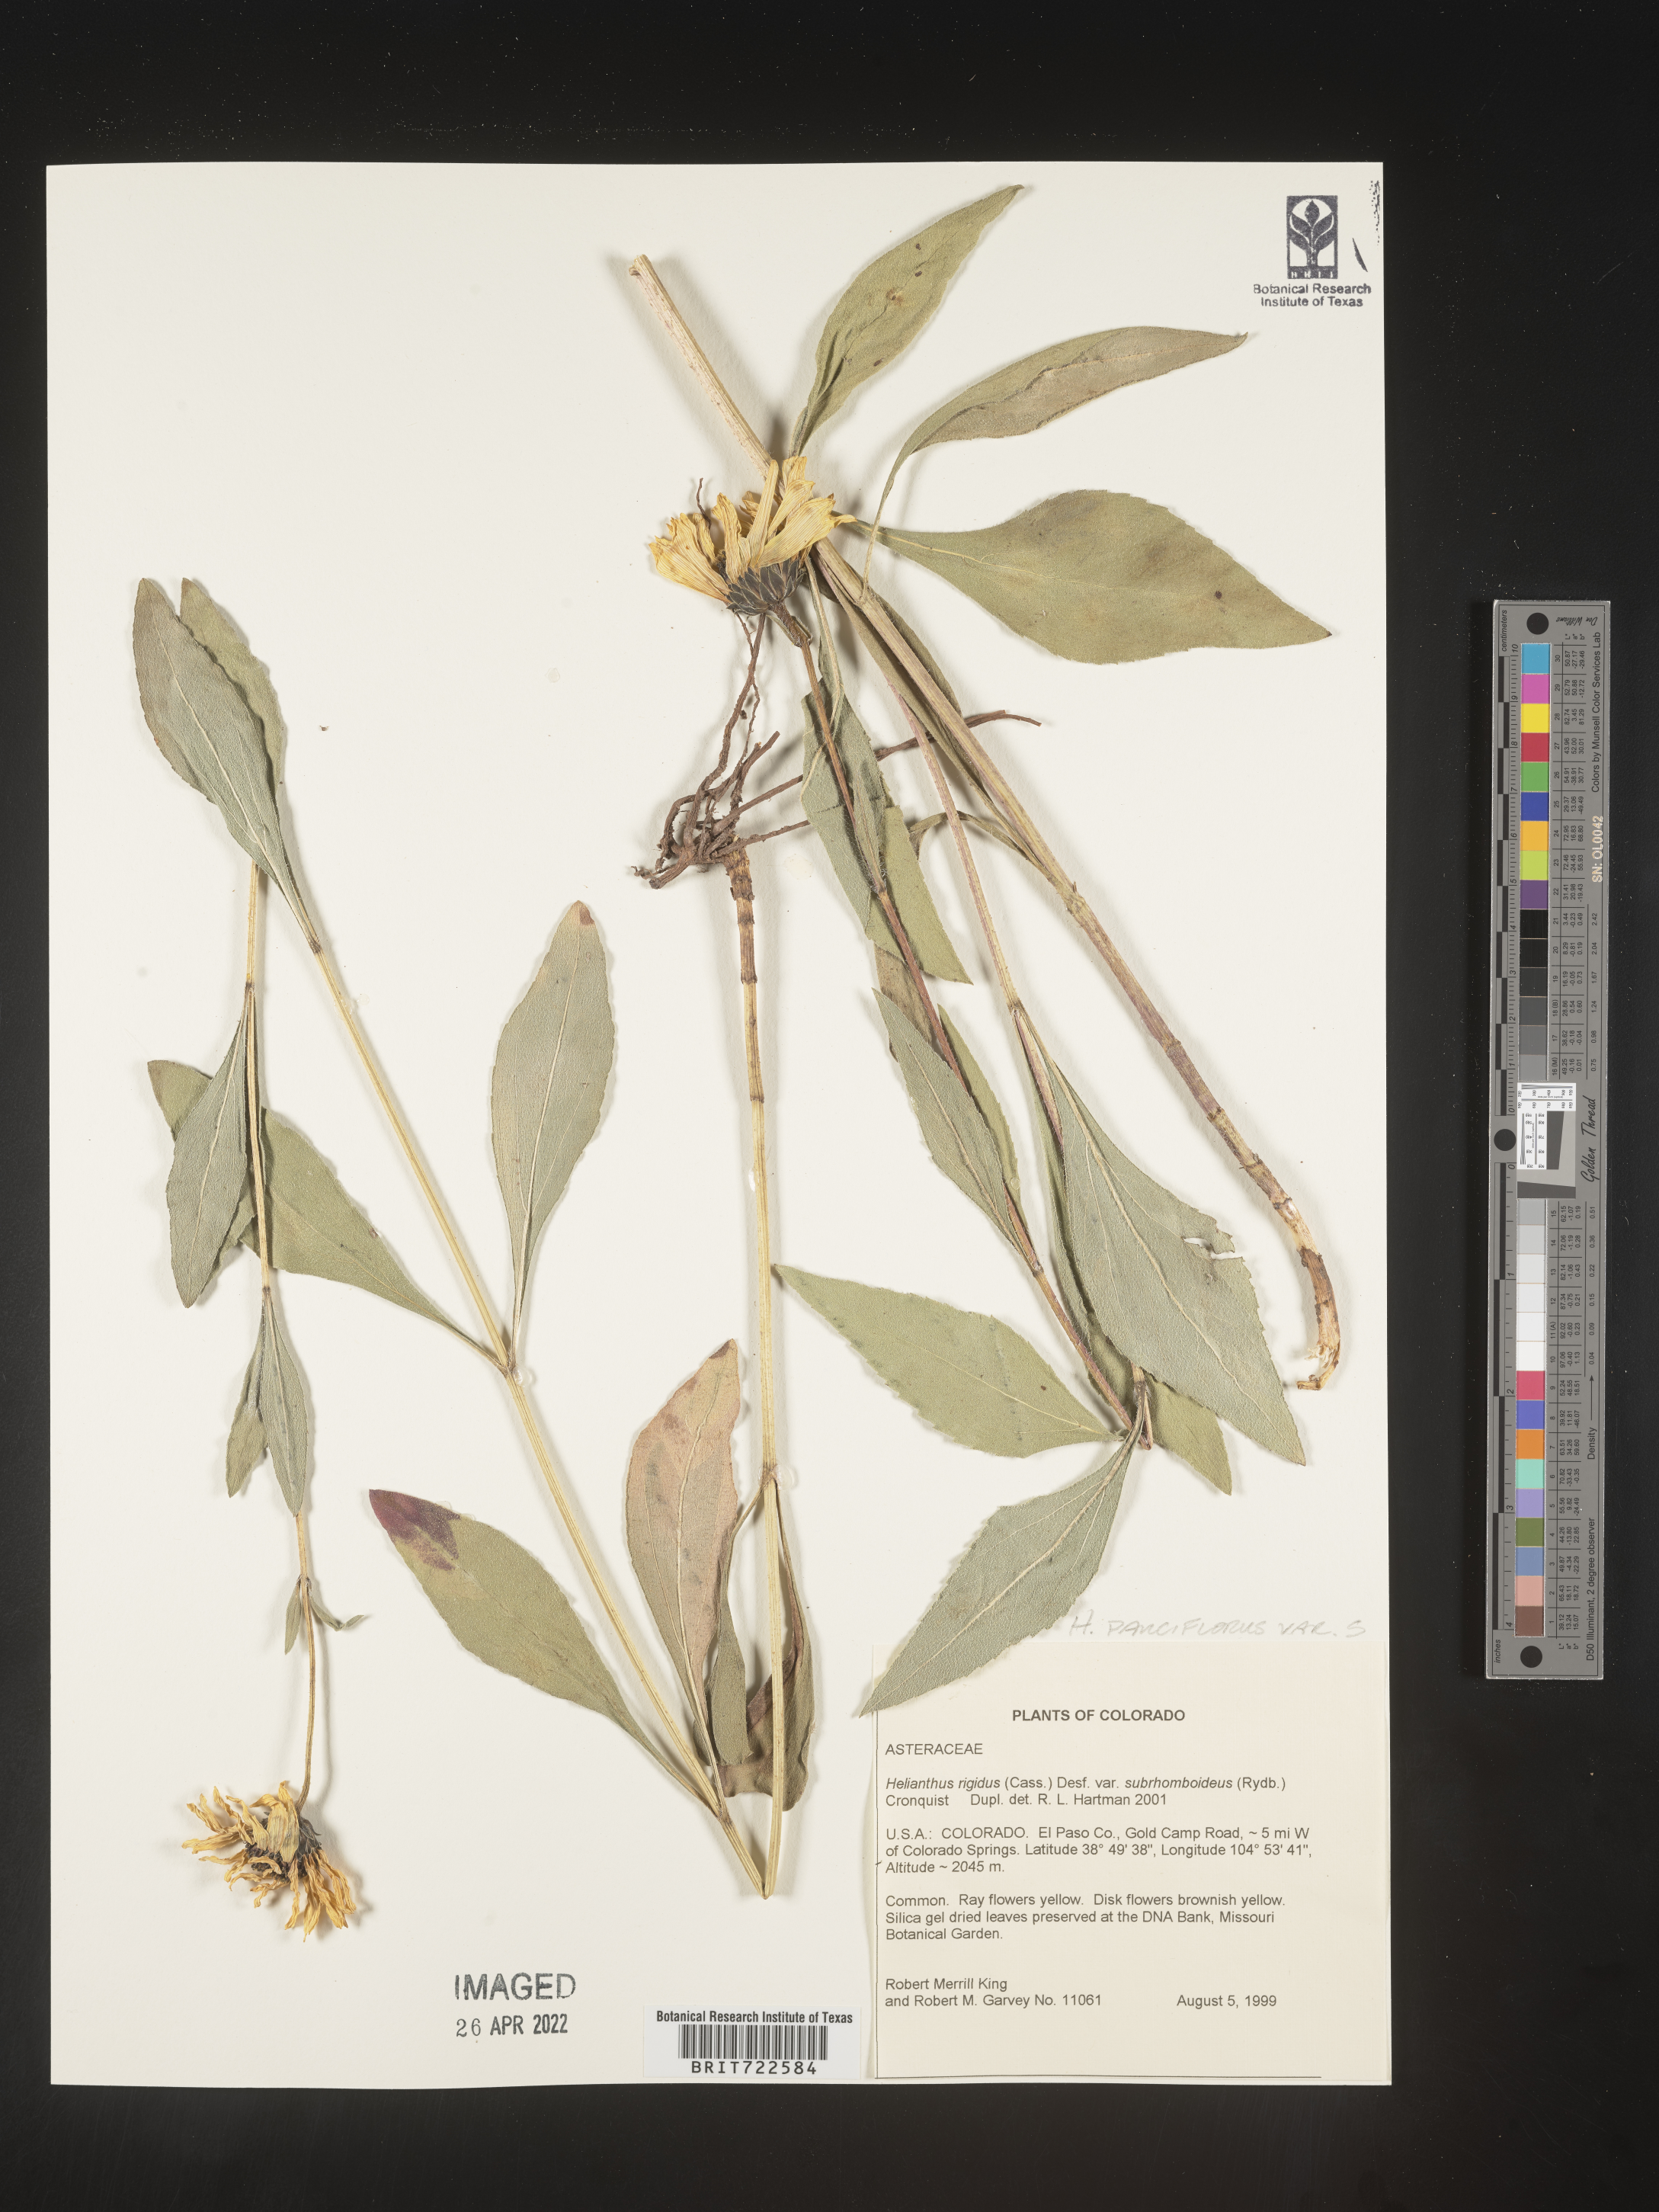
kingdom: Plantae
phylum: Tracheophyta
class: Magnoliopsida
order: Asterales
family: Asteraceae
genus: Helianthus
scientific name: Helianthus pauciflorus
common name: Stiff sunflower
